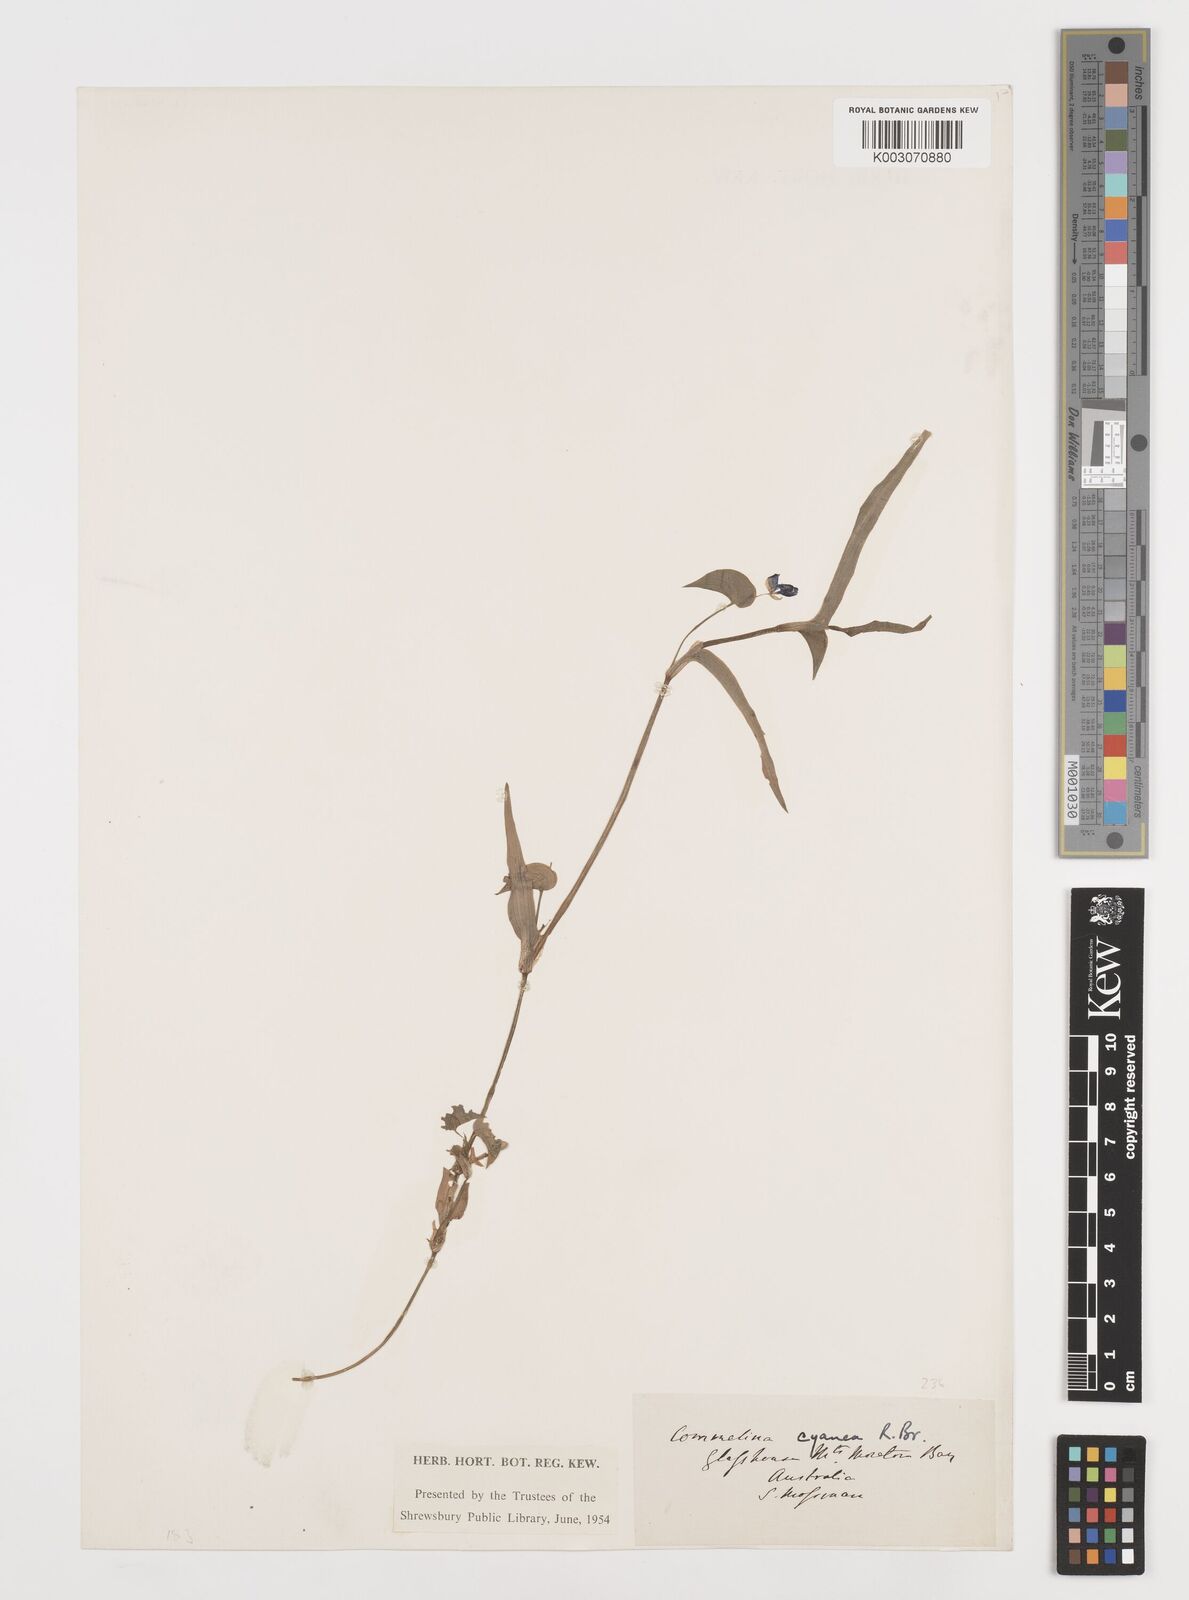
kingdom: Plantae
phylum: Tracheophyta
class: Liliopsida
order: Commelinales
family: Commelinaceae
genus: Commelina
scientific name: Commelina cyanea
